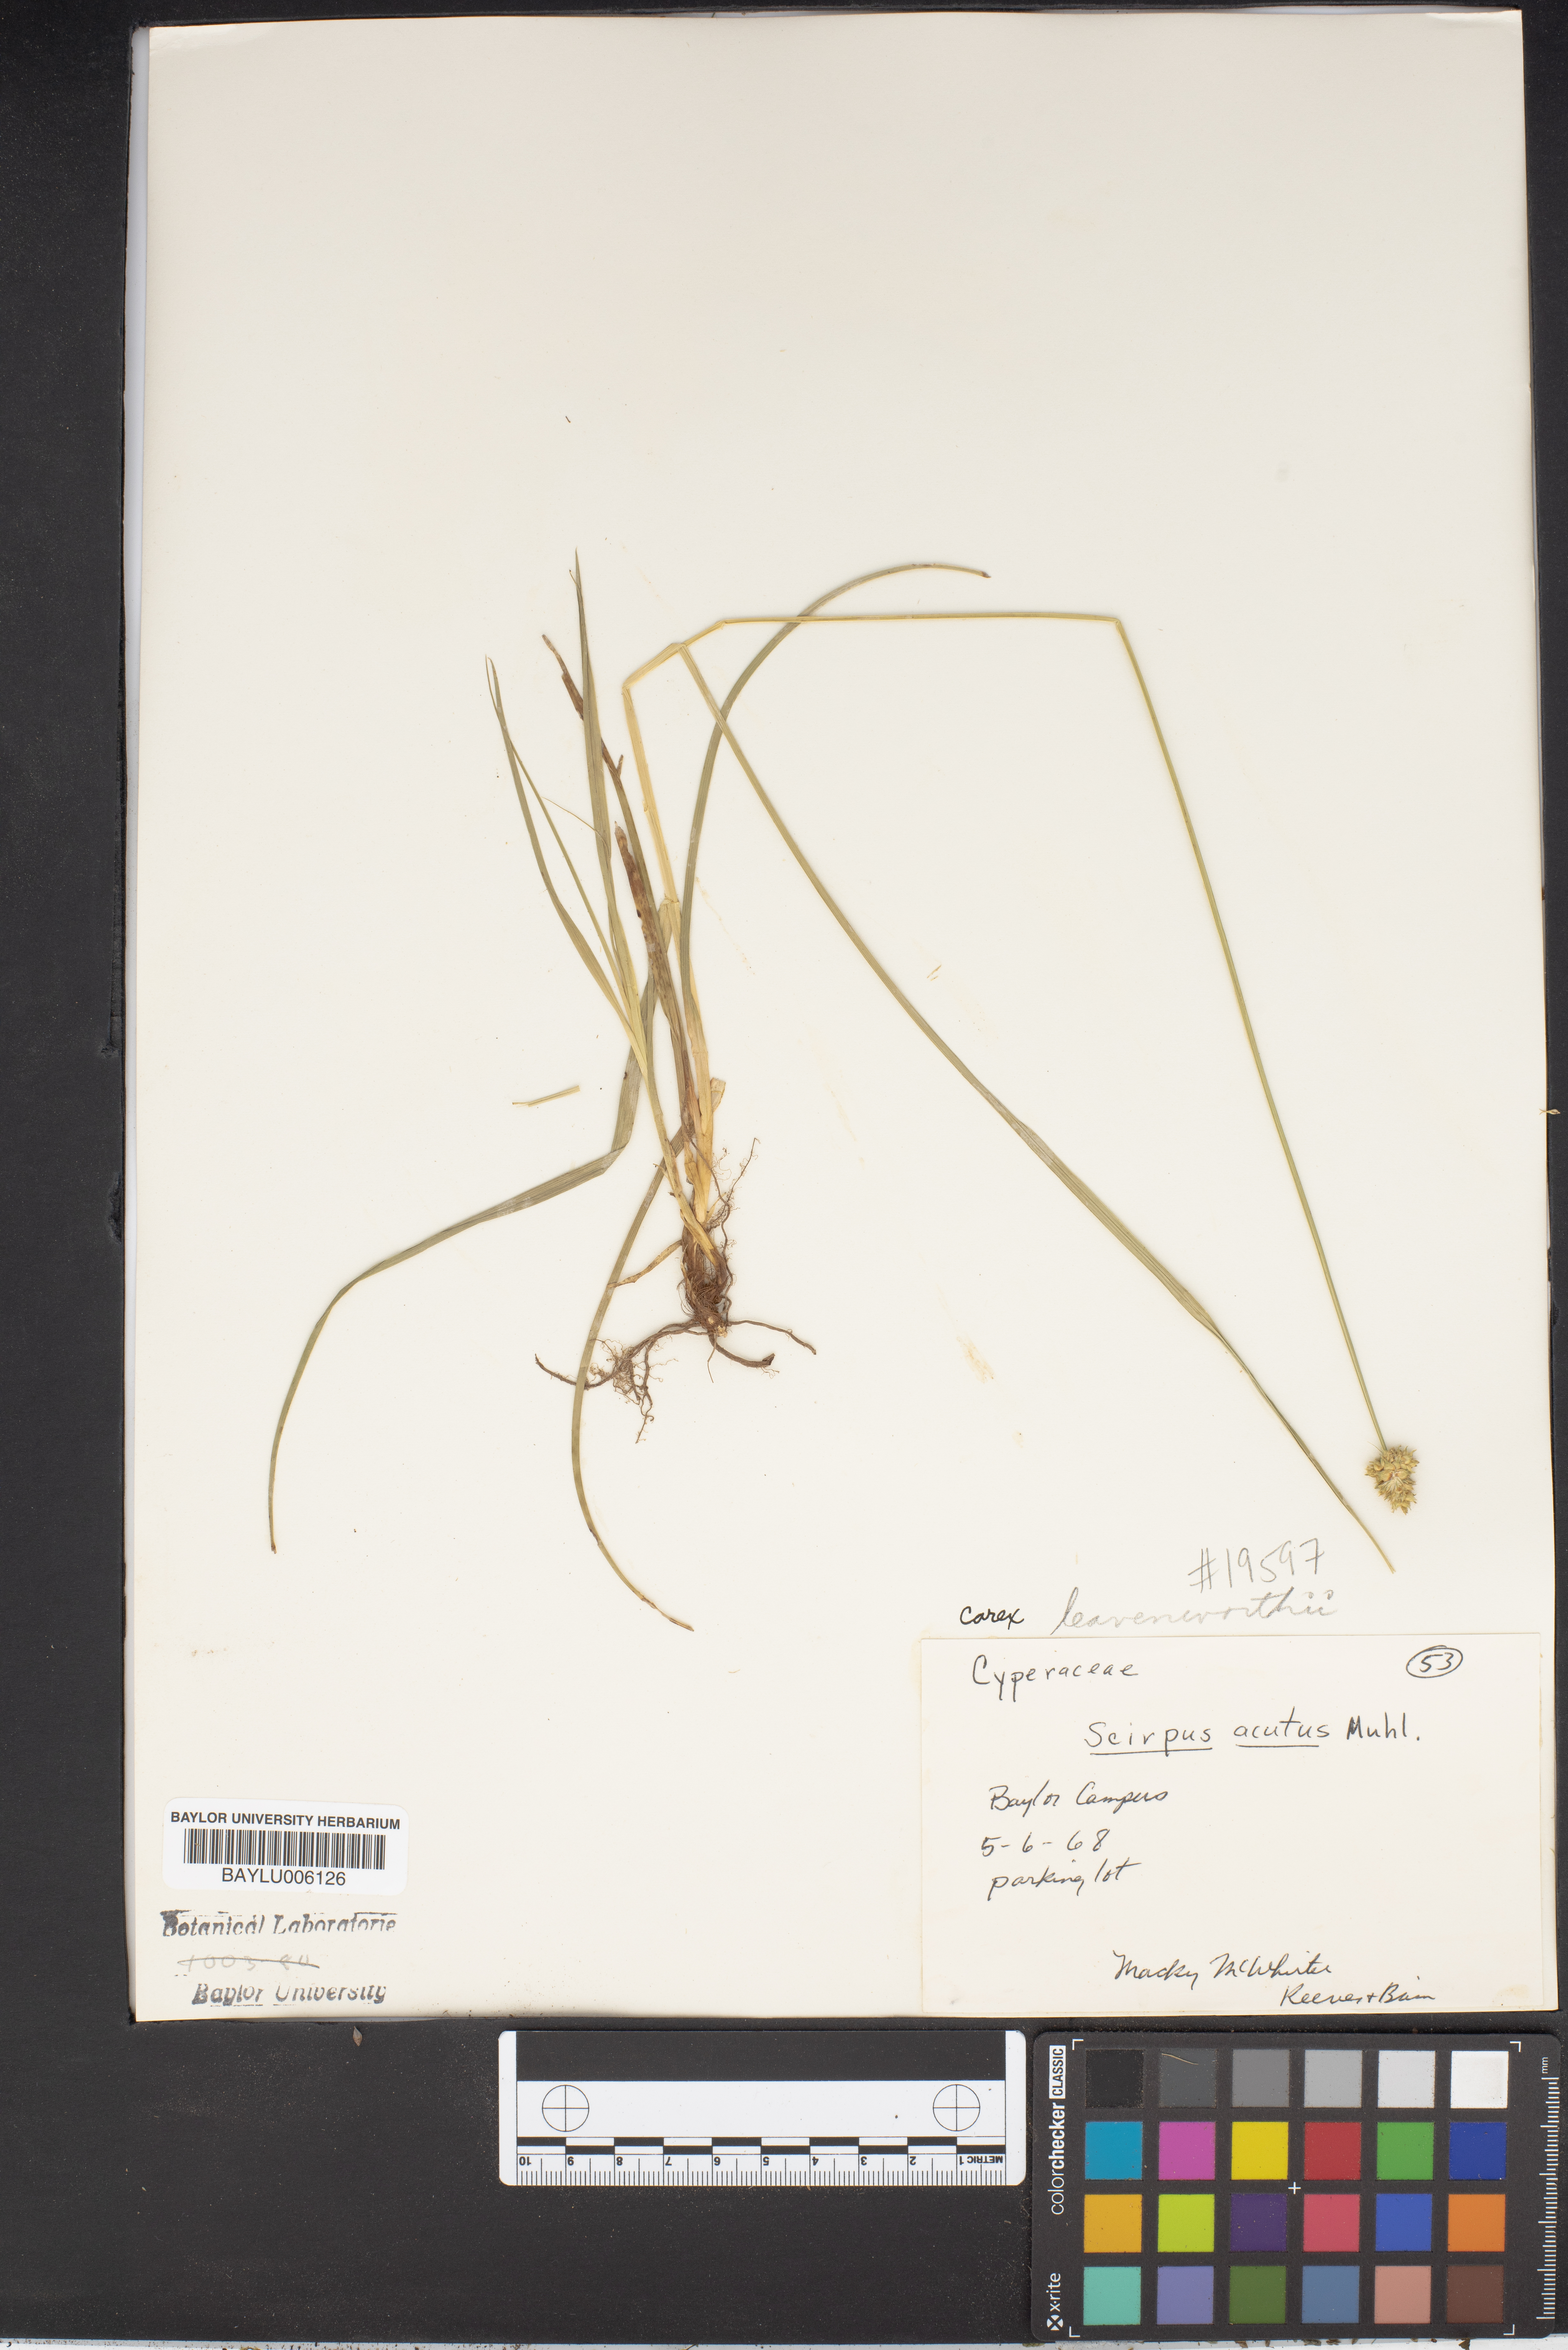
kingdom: Plantae
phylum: Tracheophyta
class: Liliopsida
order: Poales
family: Cyperaceae
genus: Scirpus
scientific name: Scirpus acutus
